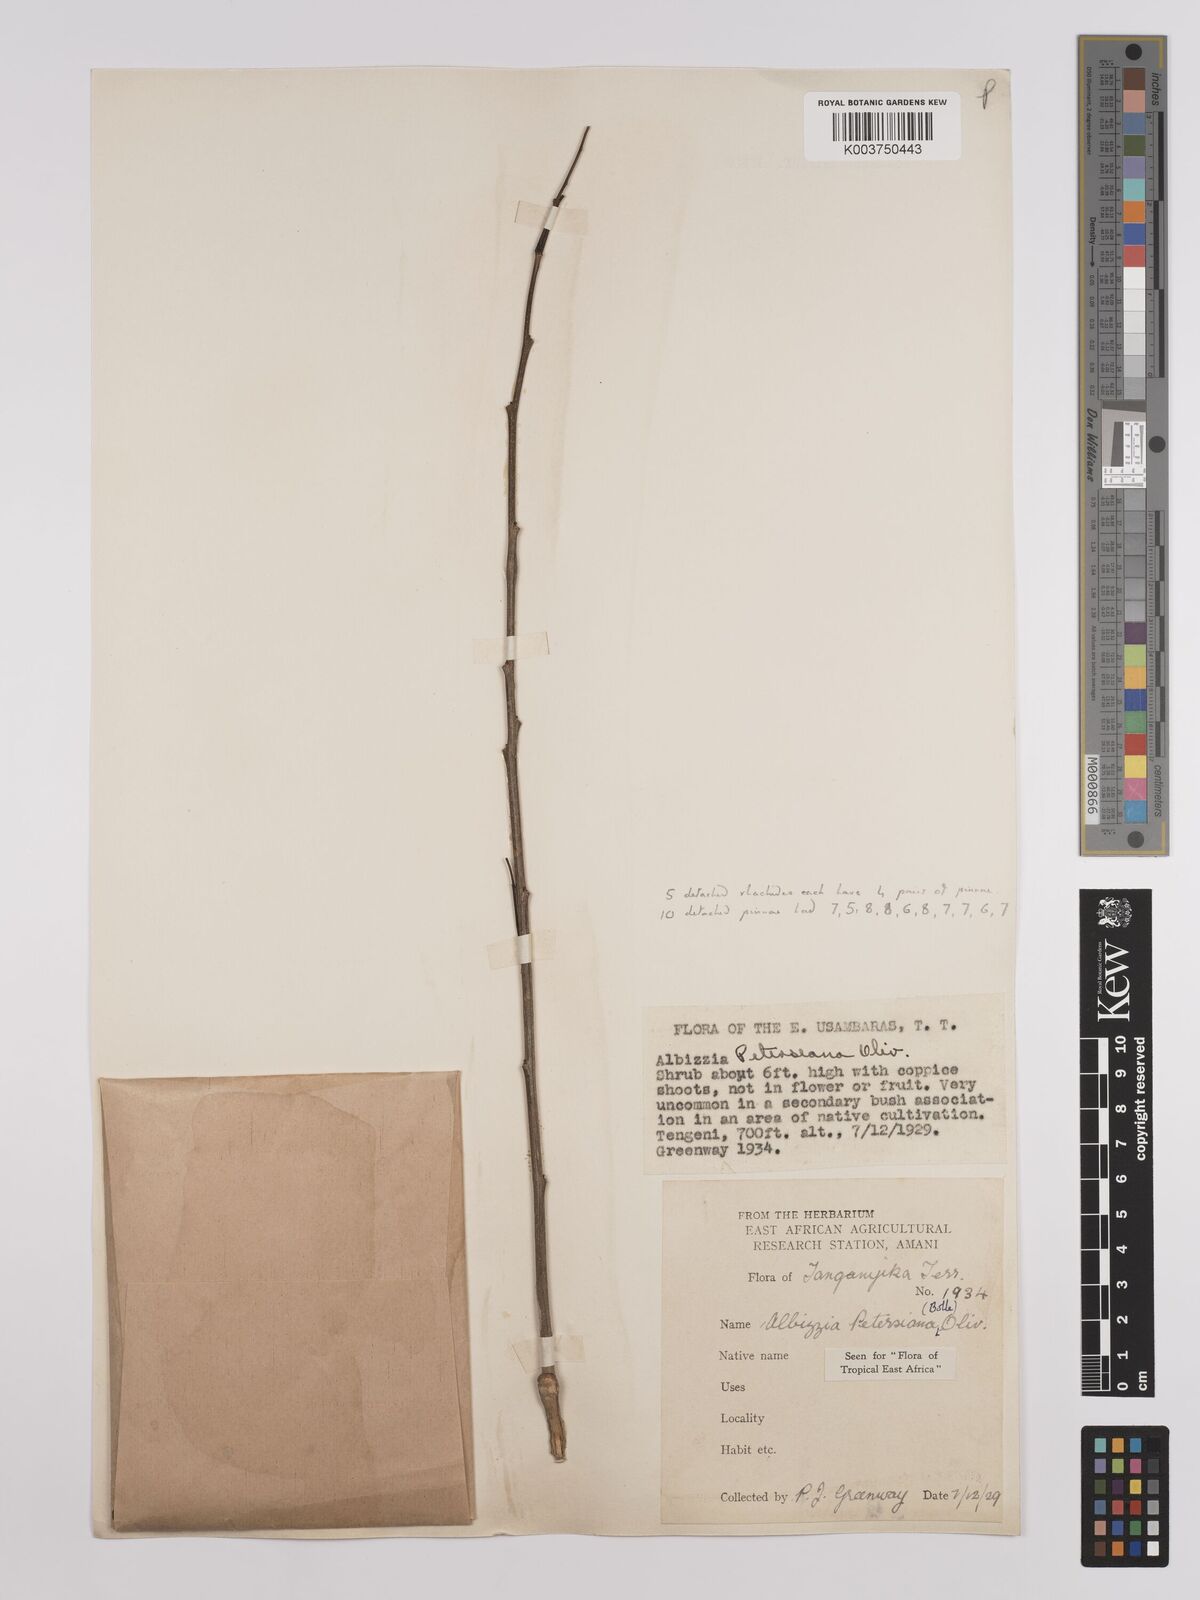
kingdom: Plantae
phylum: Tracheophyta
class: Magnoliopsida
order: Fabales
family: Fabaceae
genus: Albizia
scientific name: Albizia petersiana
